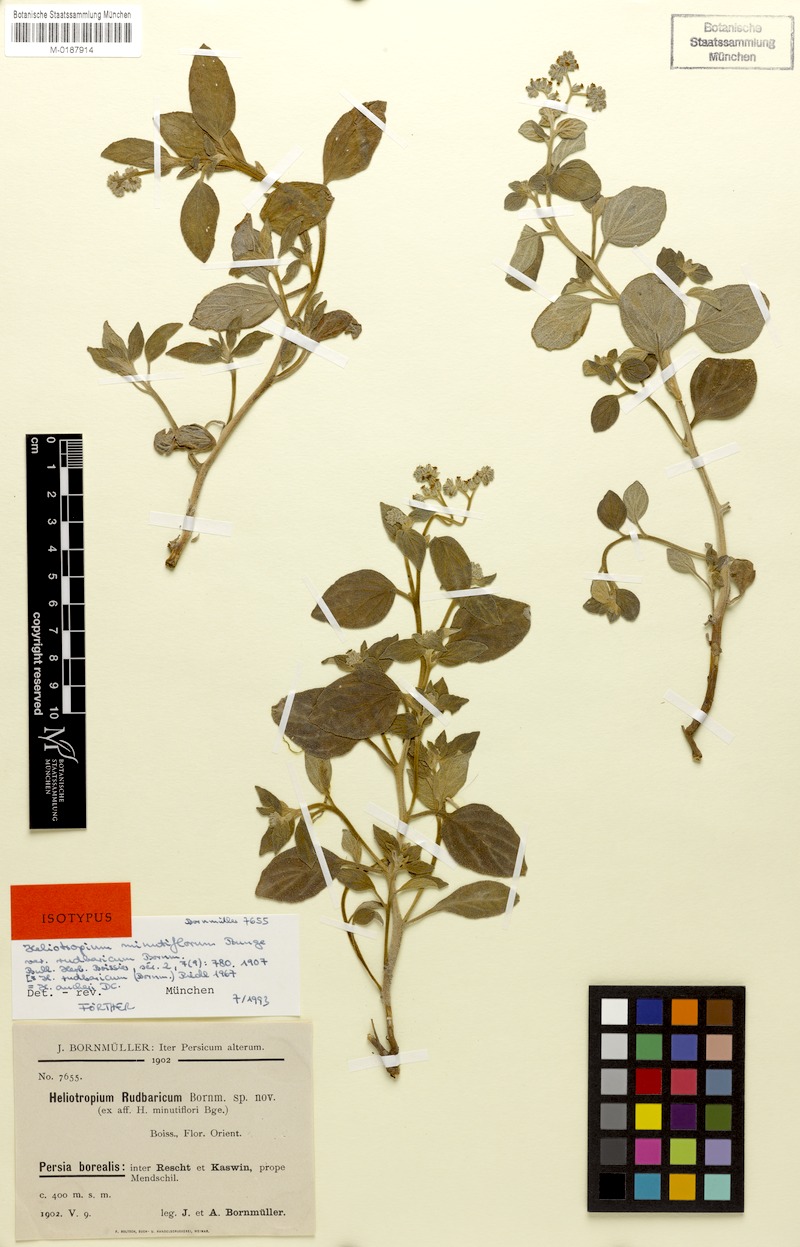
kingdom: Plantae
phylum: Tracheophyta
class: Magnoliopsida
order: Boraginales
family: Heliotropiaceae
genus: Heliotropium
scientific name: Heliotropium aucheri
